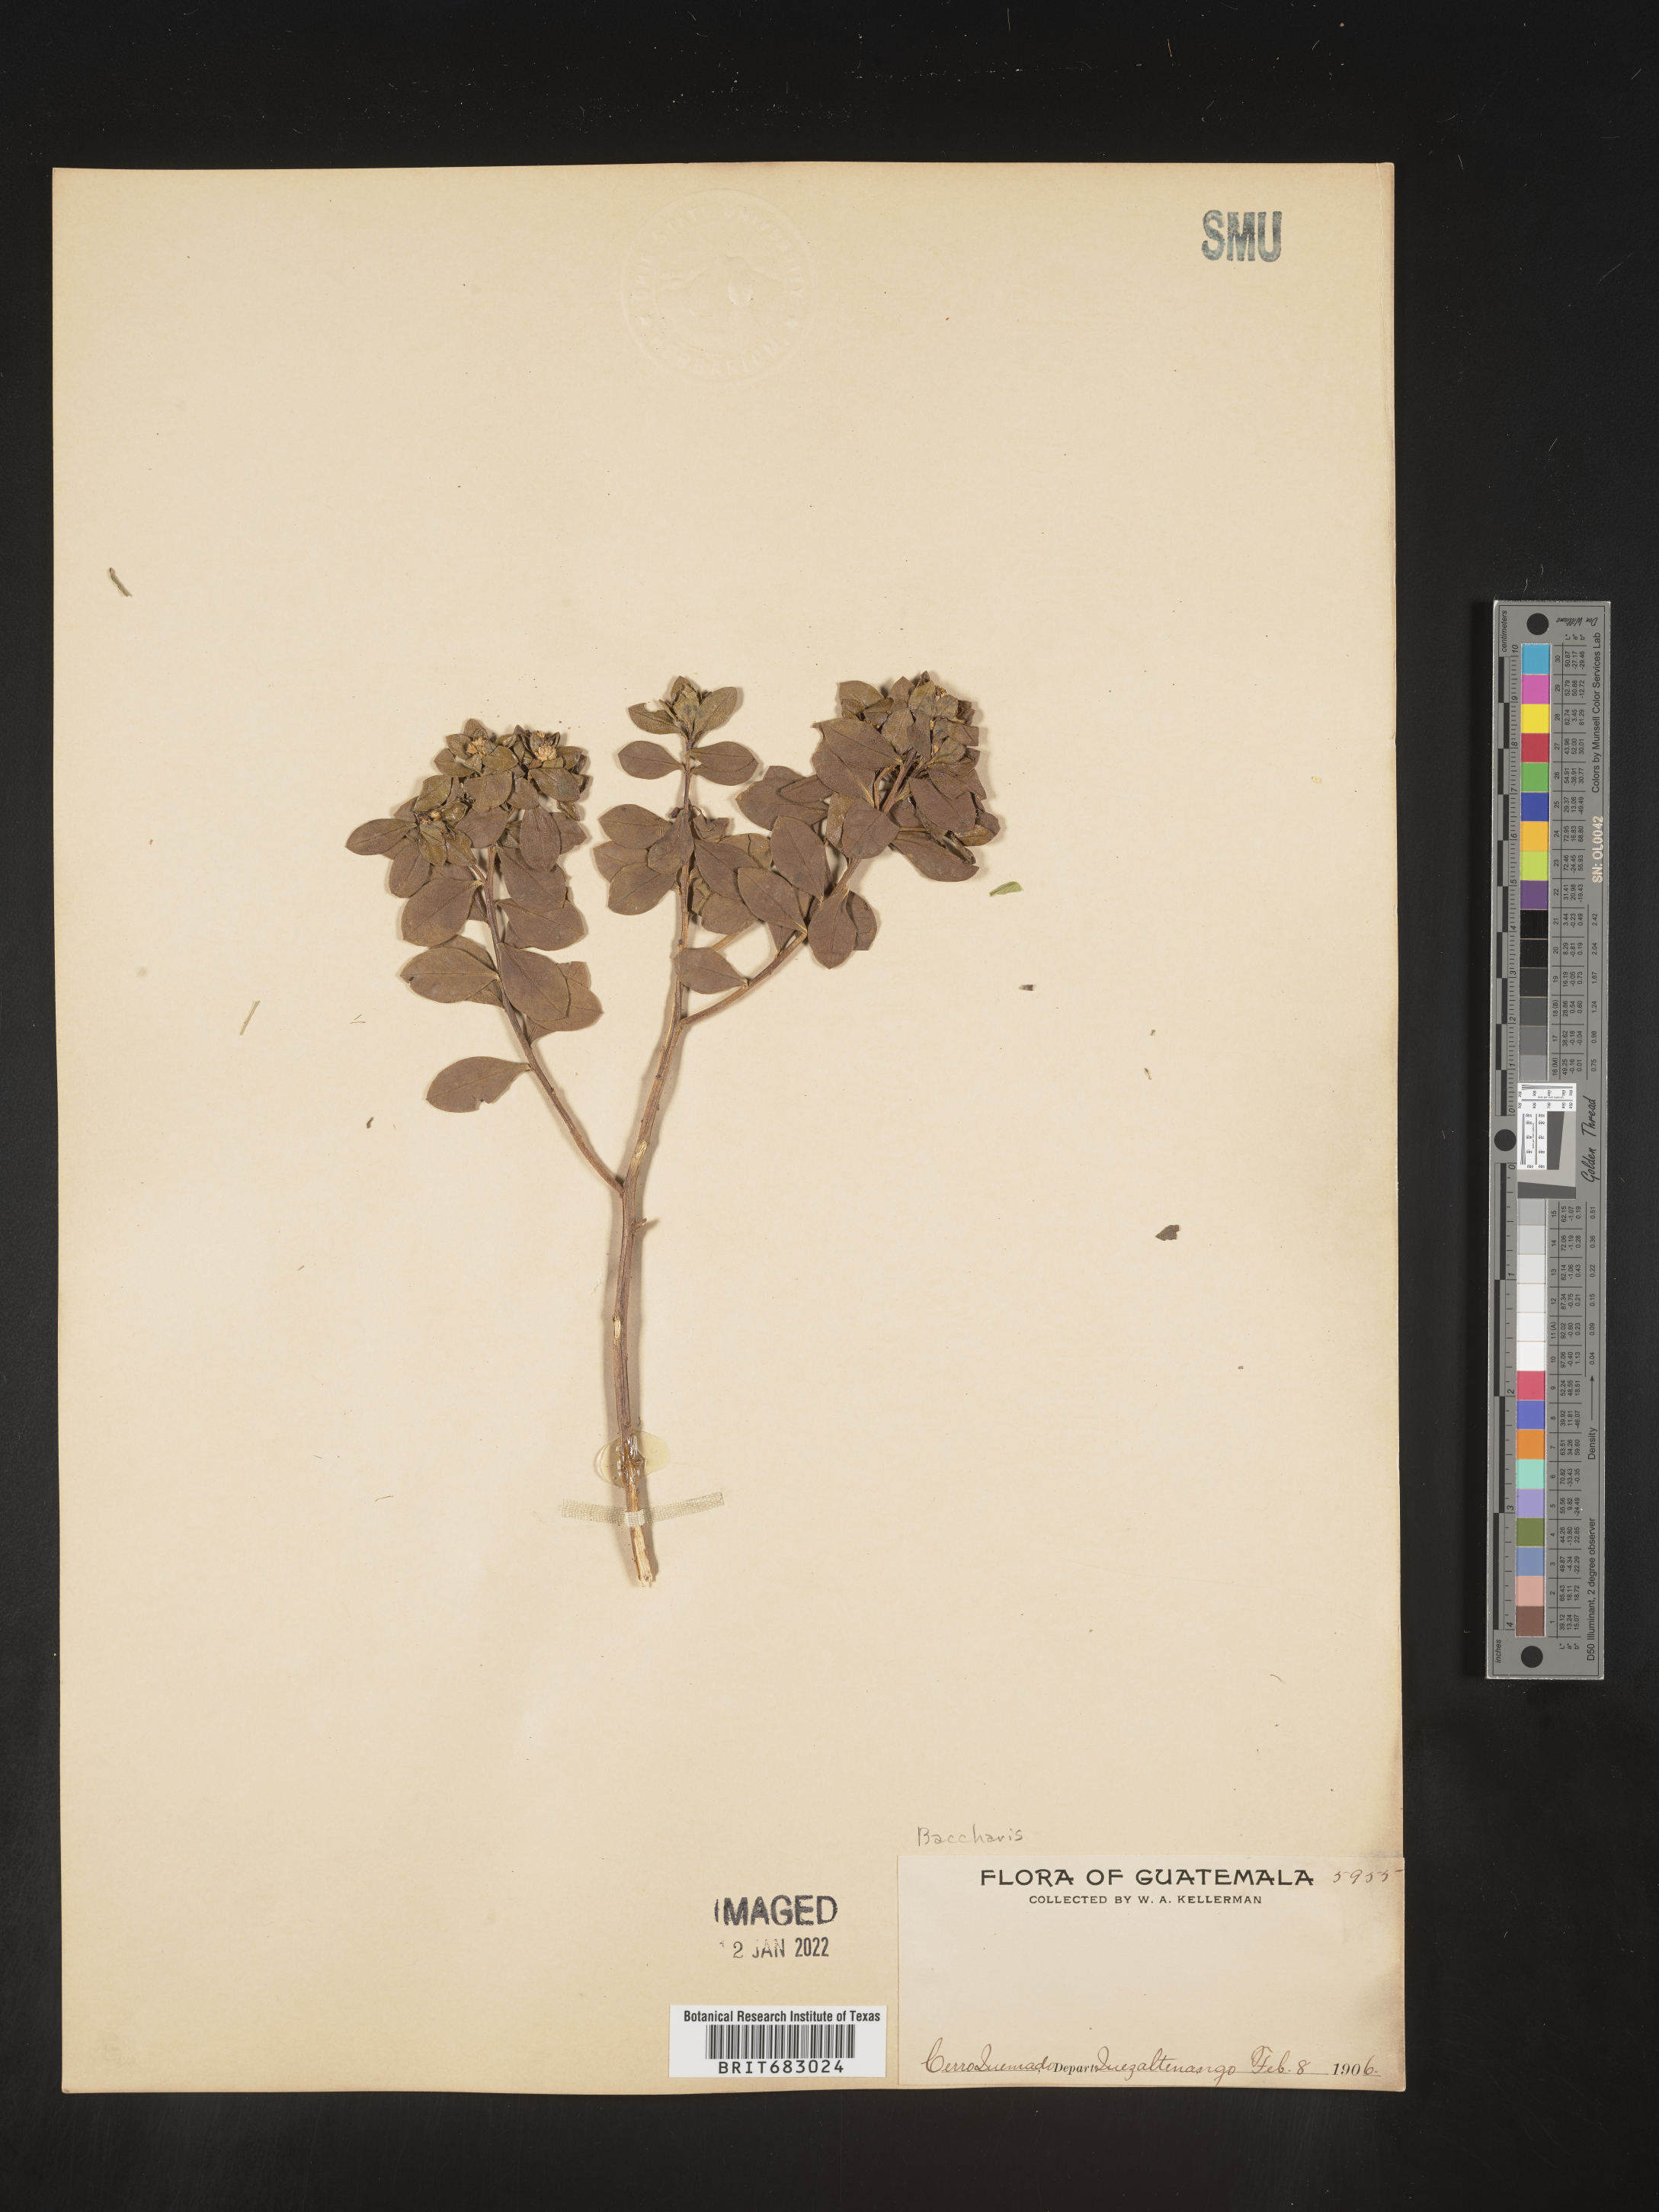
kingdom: Plantae
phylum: Tracheophyta
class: Magnoliopsida
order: Asterales
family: Asteraceae
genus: Baccharis
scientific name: Baccharis lancifolia
